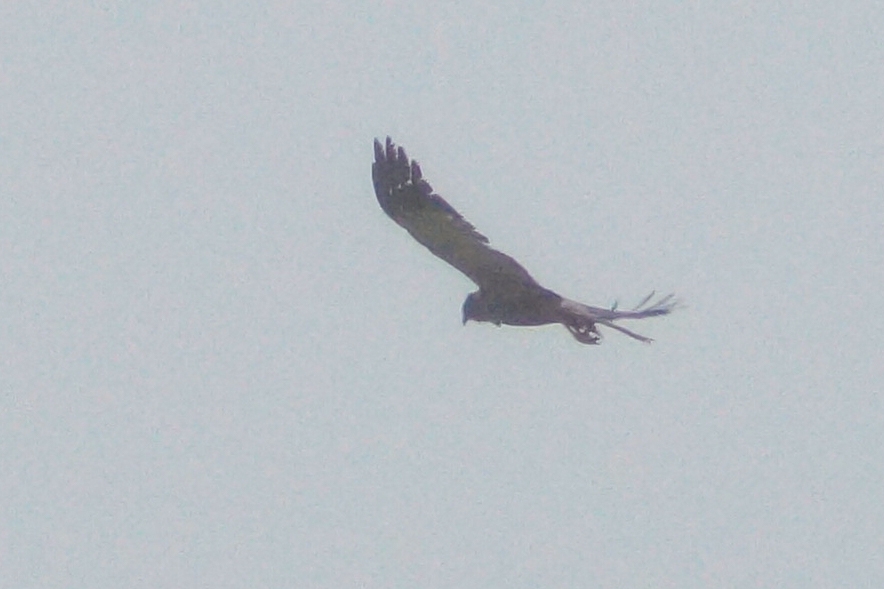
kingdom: Animalia
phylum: Chordata
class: Aves
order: Accipitriformes
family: Accipitridae
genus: Circus
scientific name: Circus aeruginosus
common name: Rørhøg
